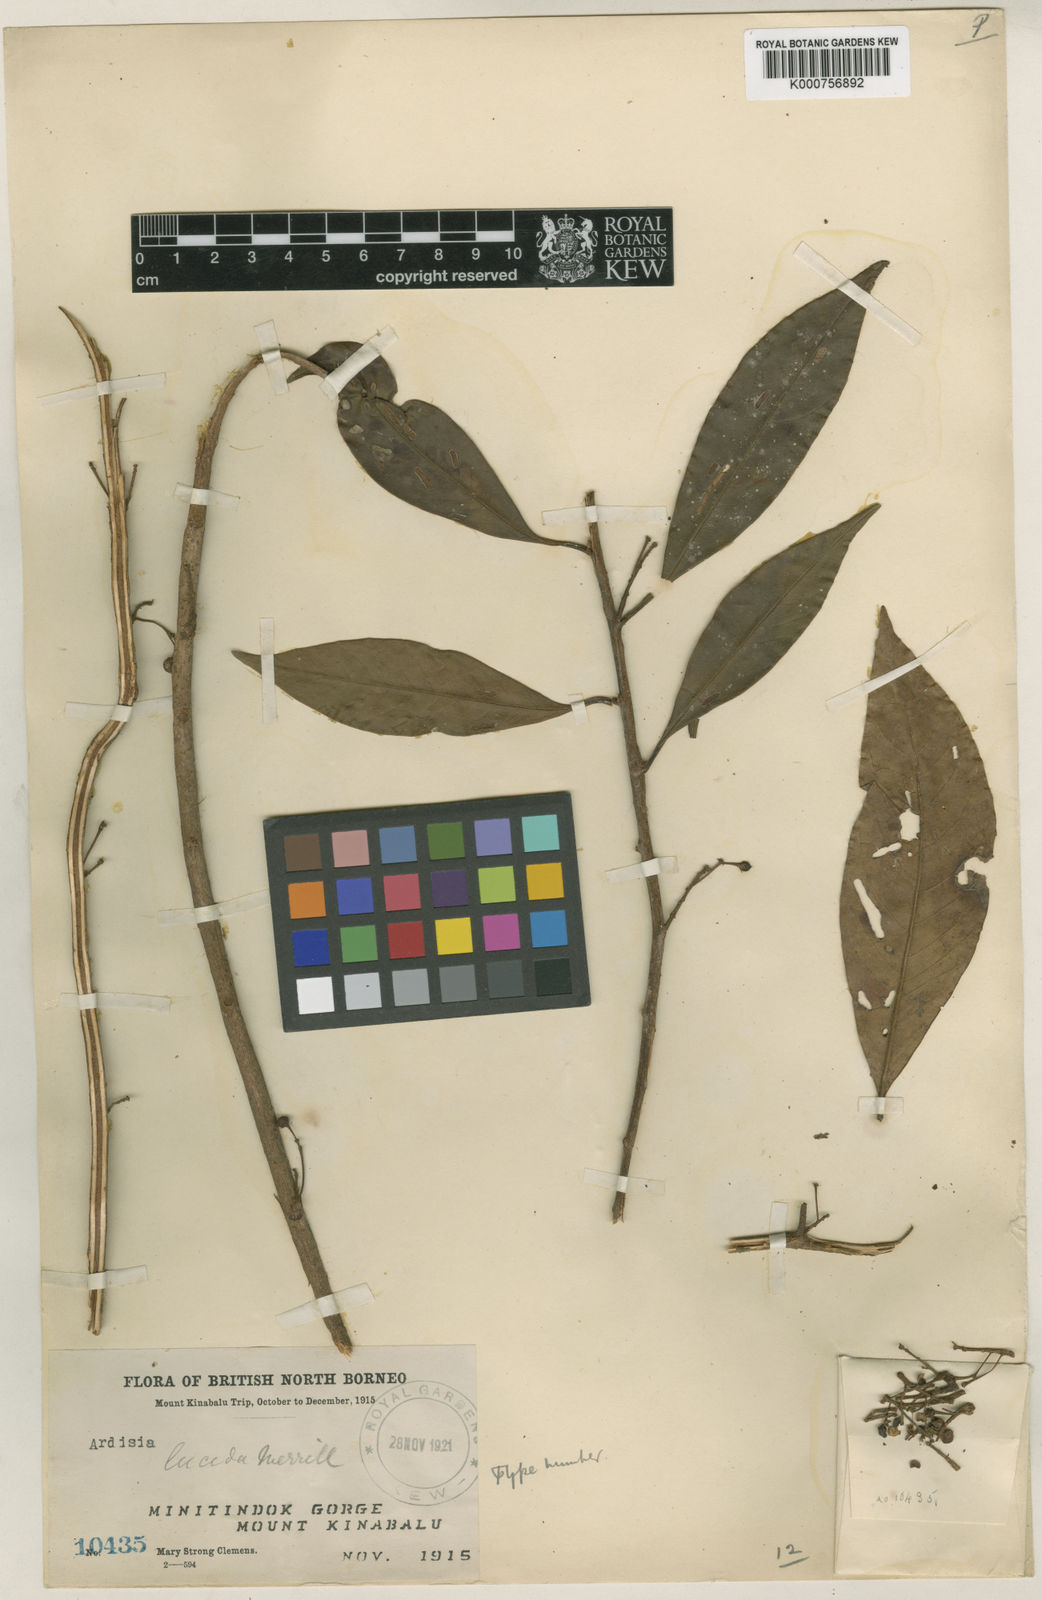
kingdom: Plantae
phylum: Tracheophyta
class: Magnoliopsida
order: Ericales
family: Primulaceae
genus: Ardisia
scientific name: Ardisia lucida
